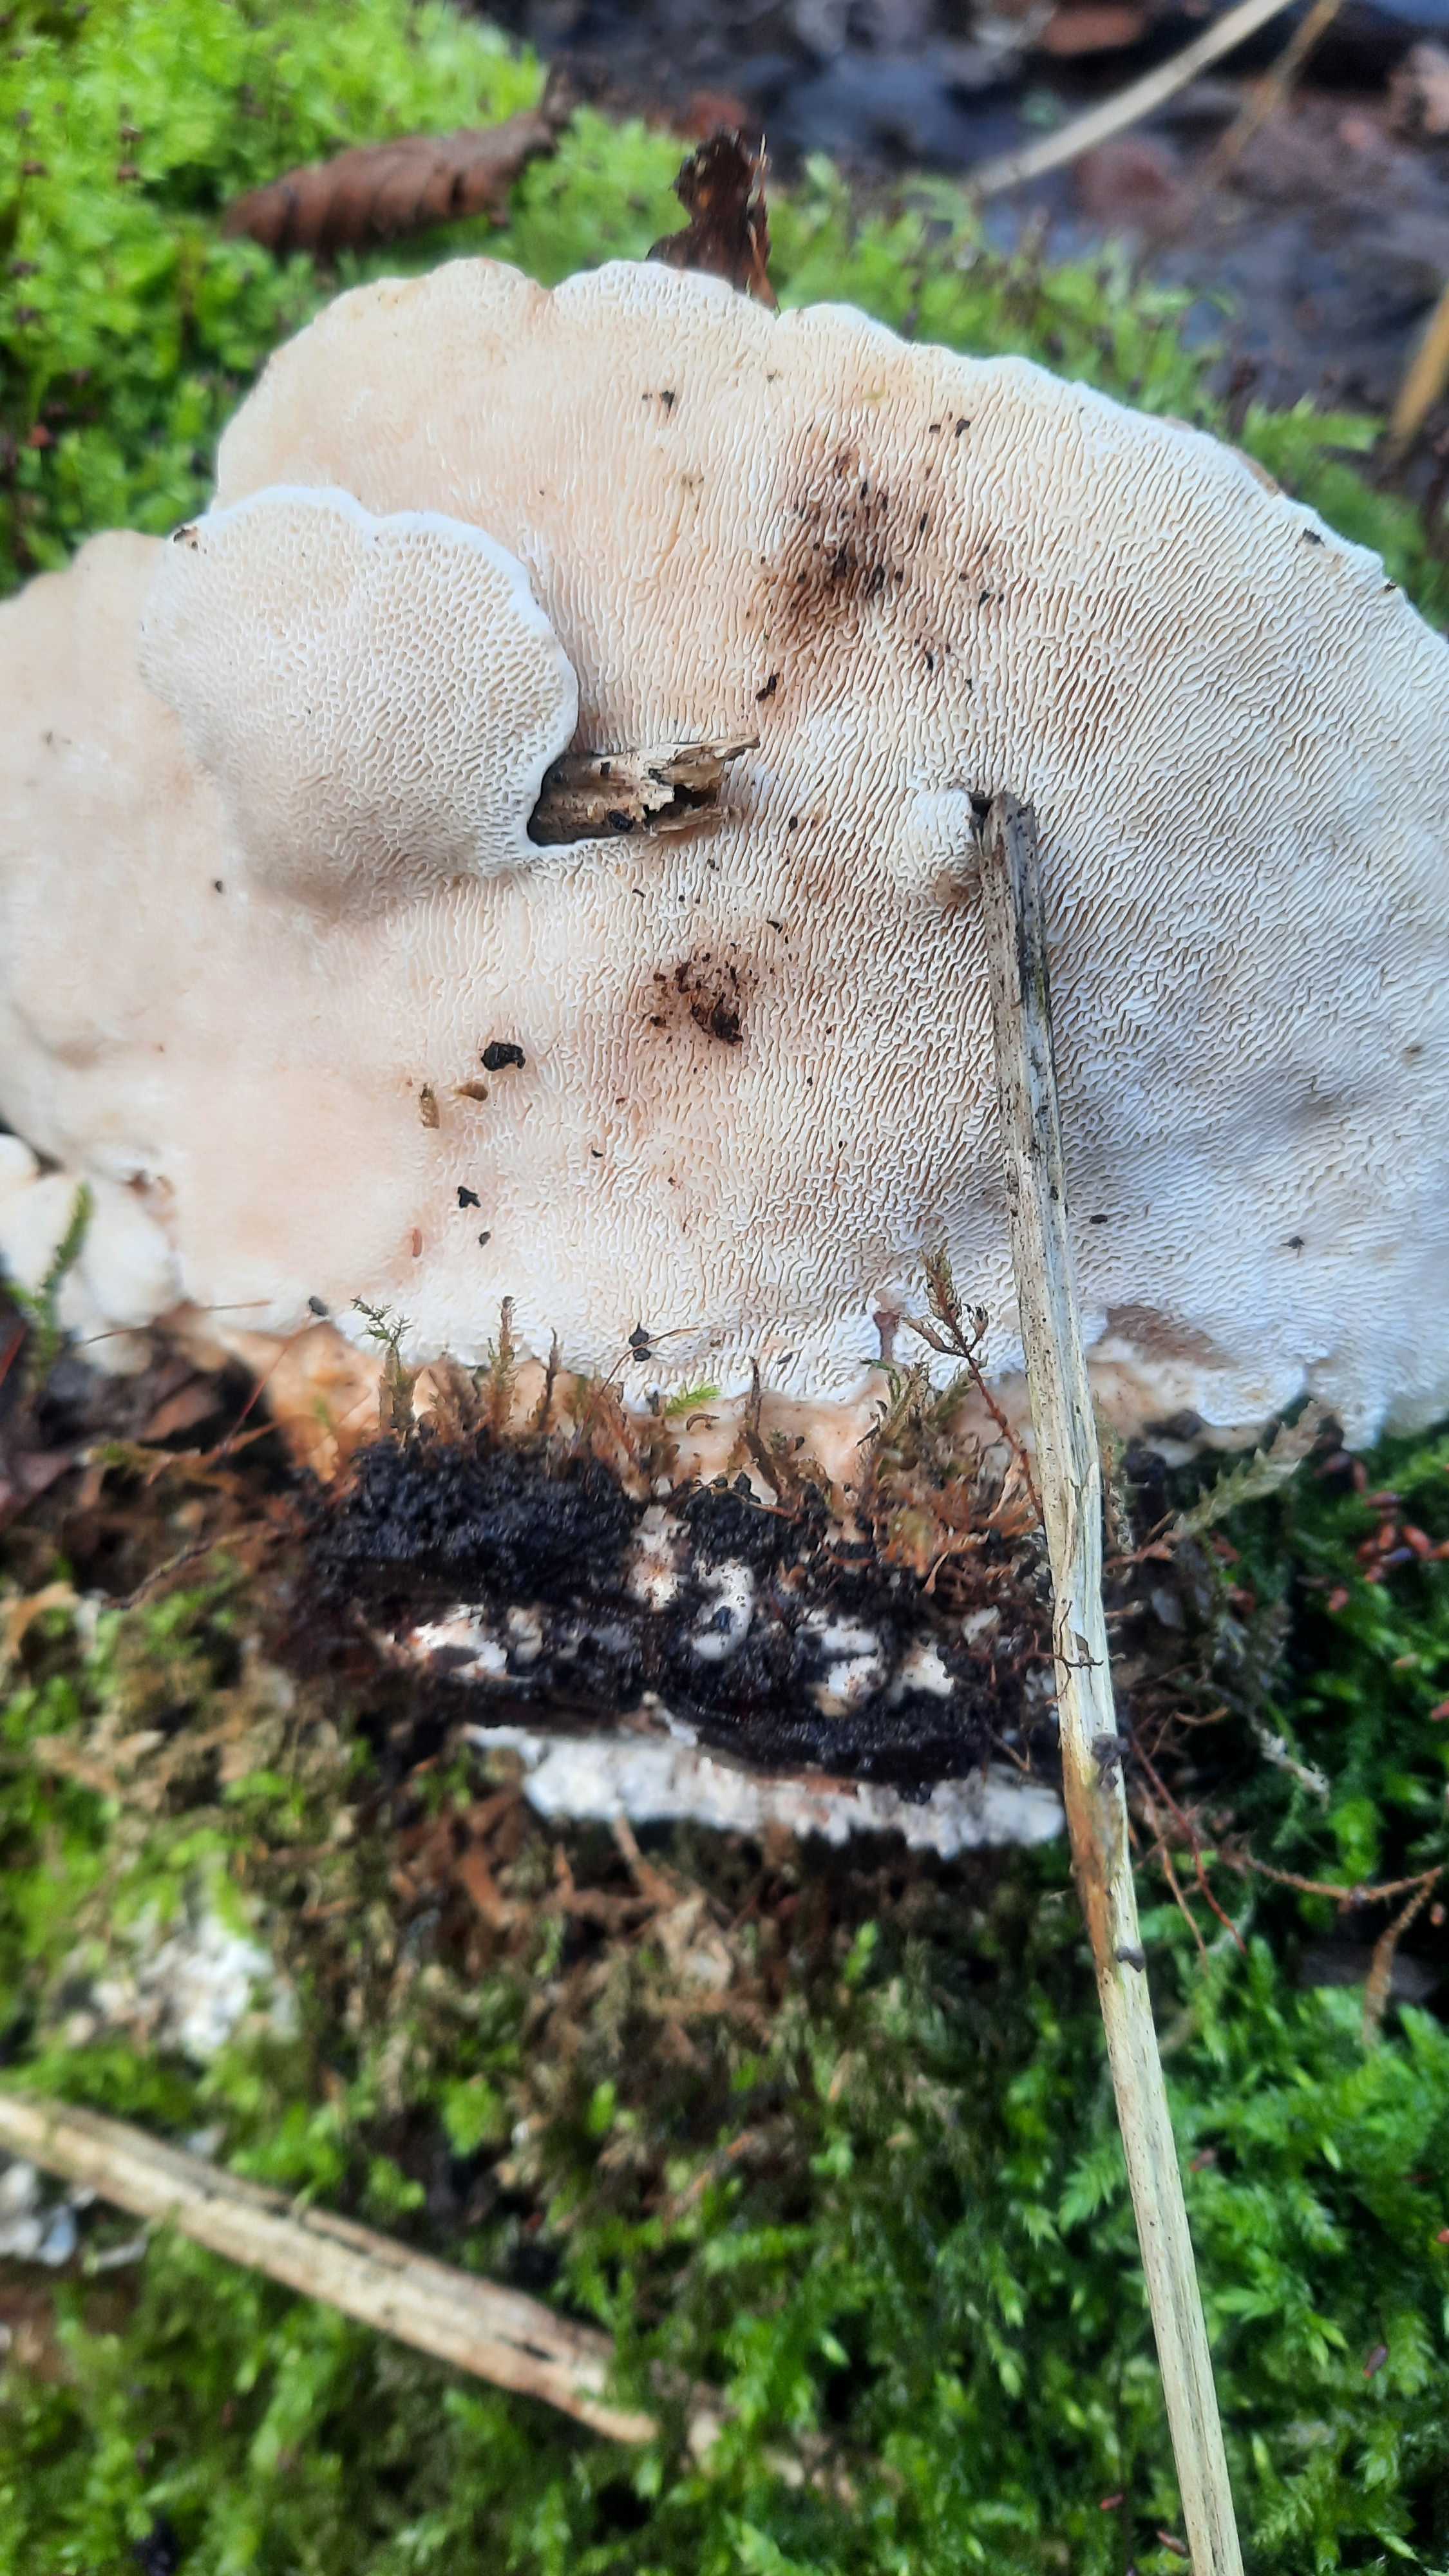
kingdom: Fungi
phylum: Basidiomycota
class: Agaricomycetes
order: Polyporales
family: Polyporaceae
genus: Trametes
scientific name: Trametes gibbosa
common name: puklet læderporesvamp
